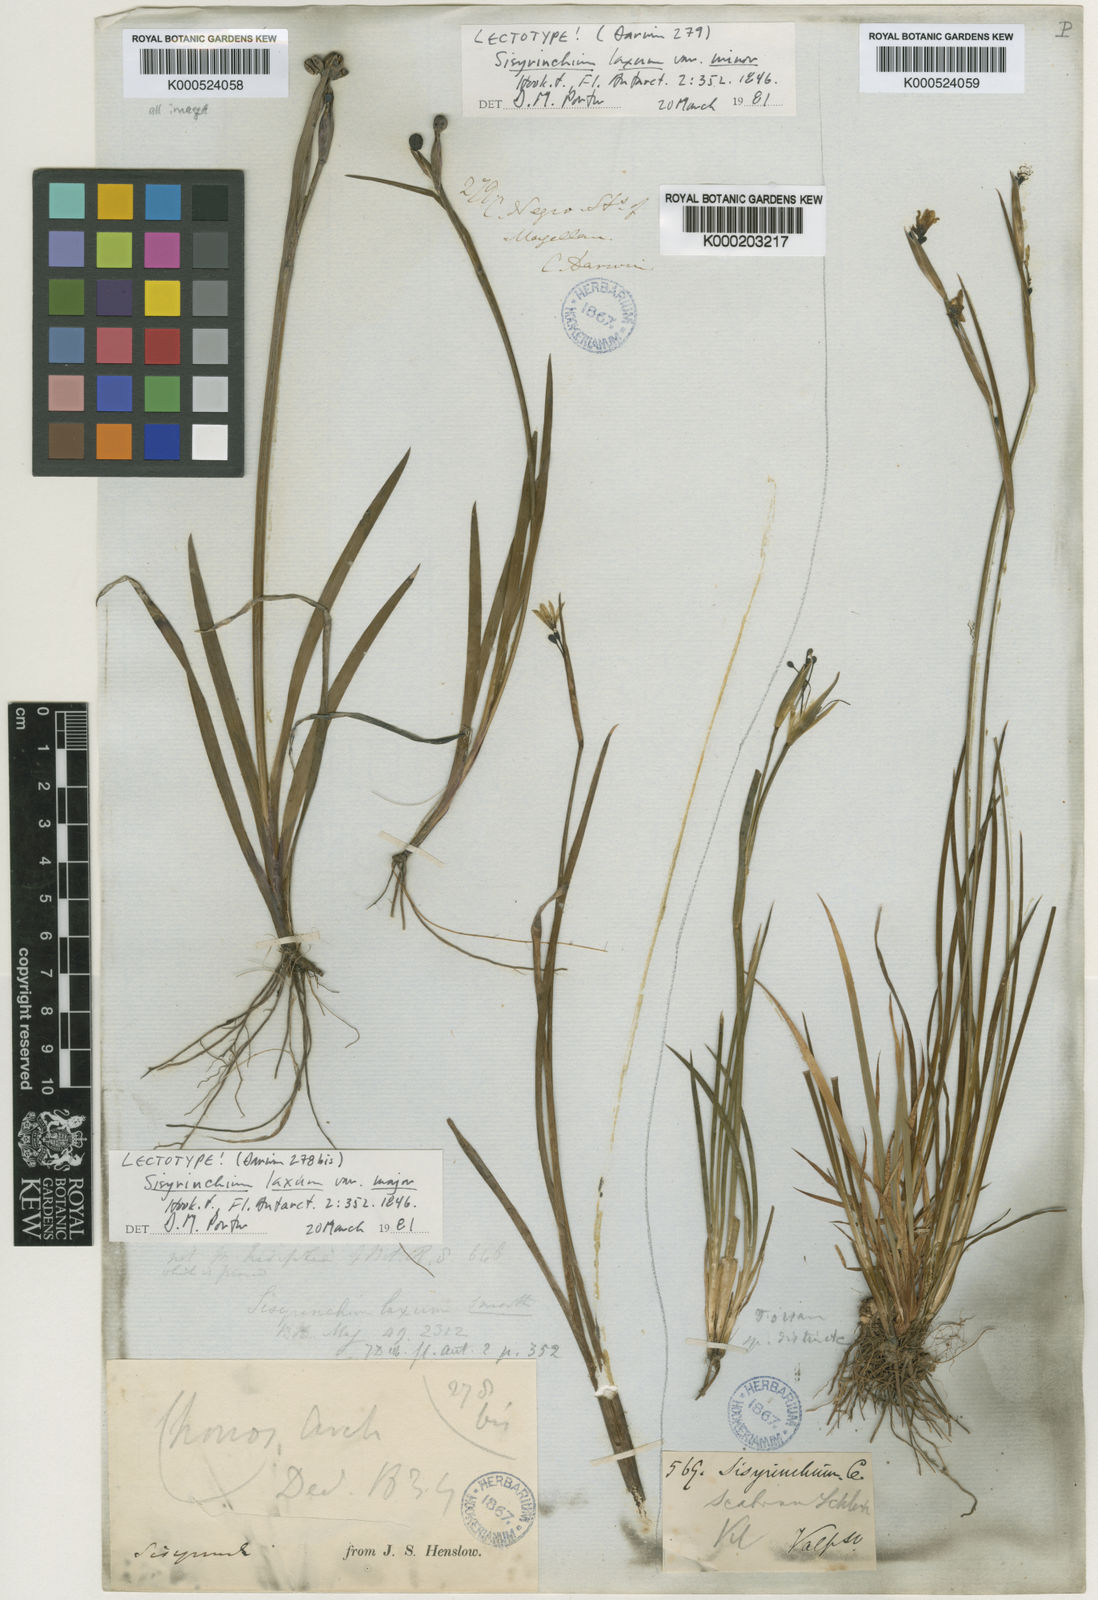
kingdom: Plantae
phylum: Tracheophyta
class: Liliopsida
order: Asparagales
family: Iridaceae
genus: Sisyrinchium
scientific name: Sisyrinchium laxum
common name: Veined yellow-eyed-grass
